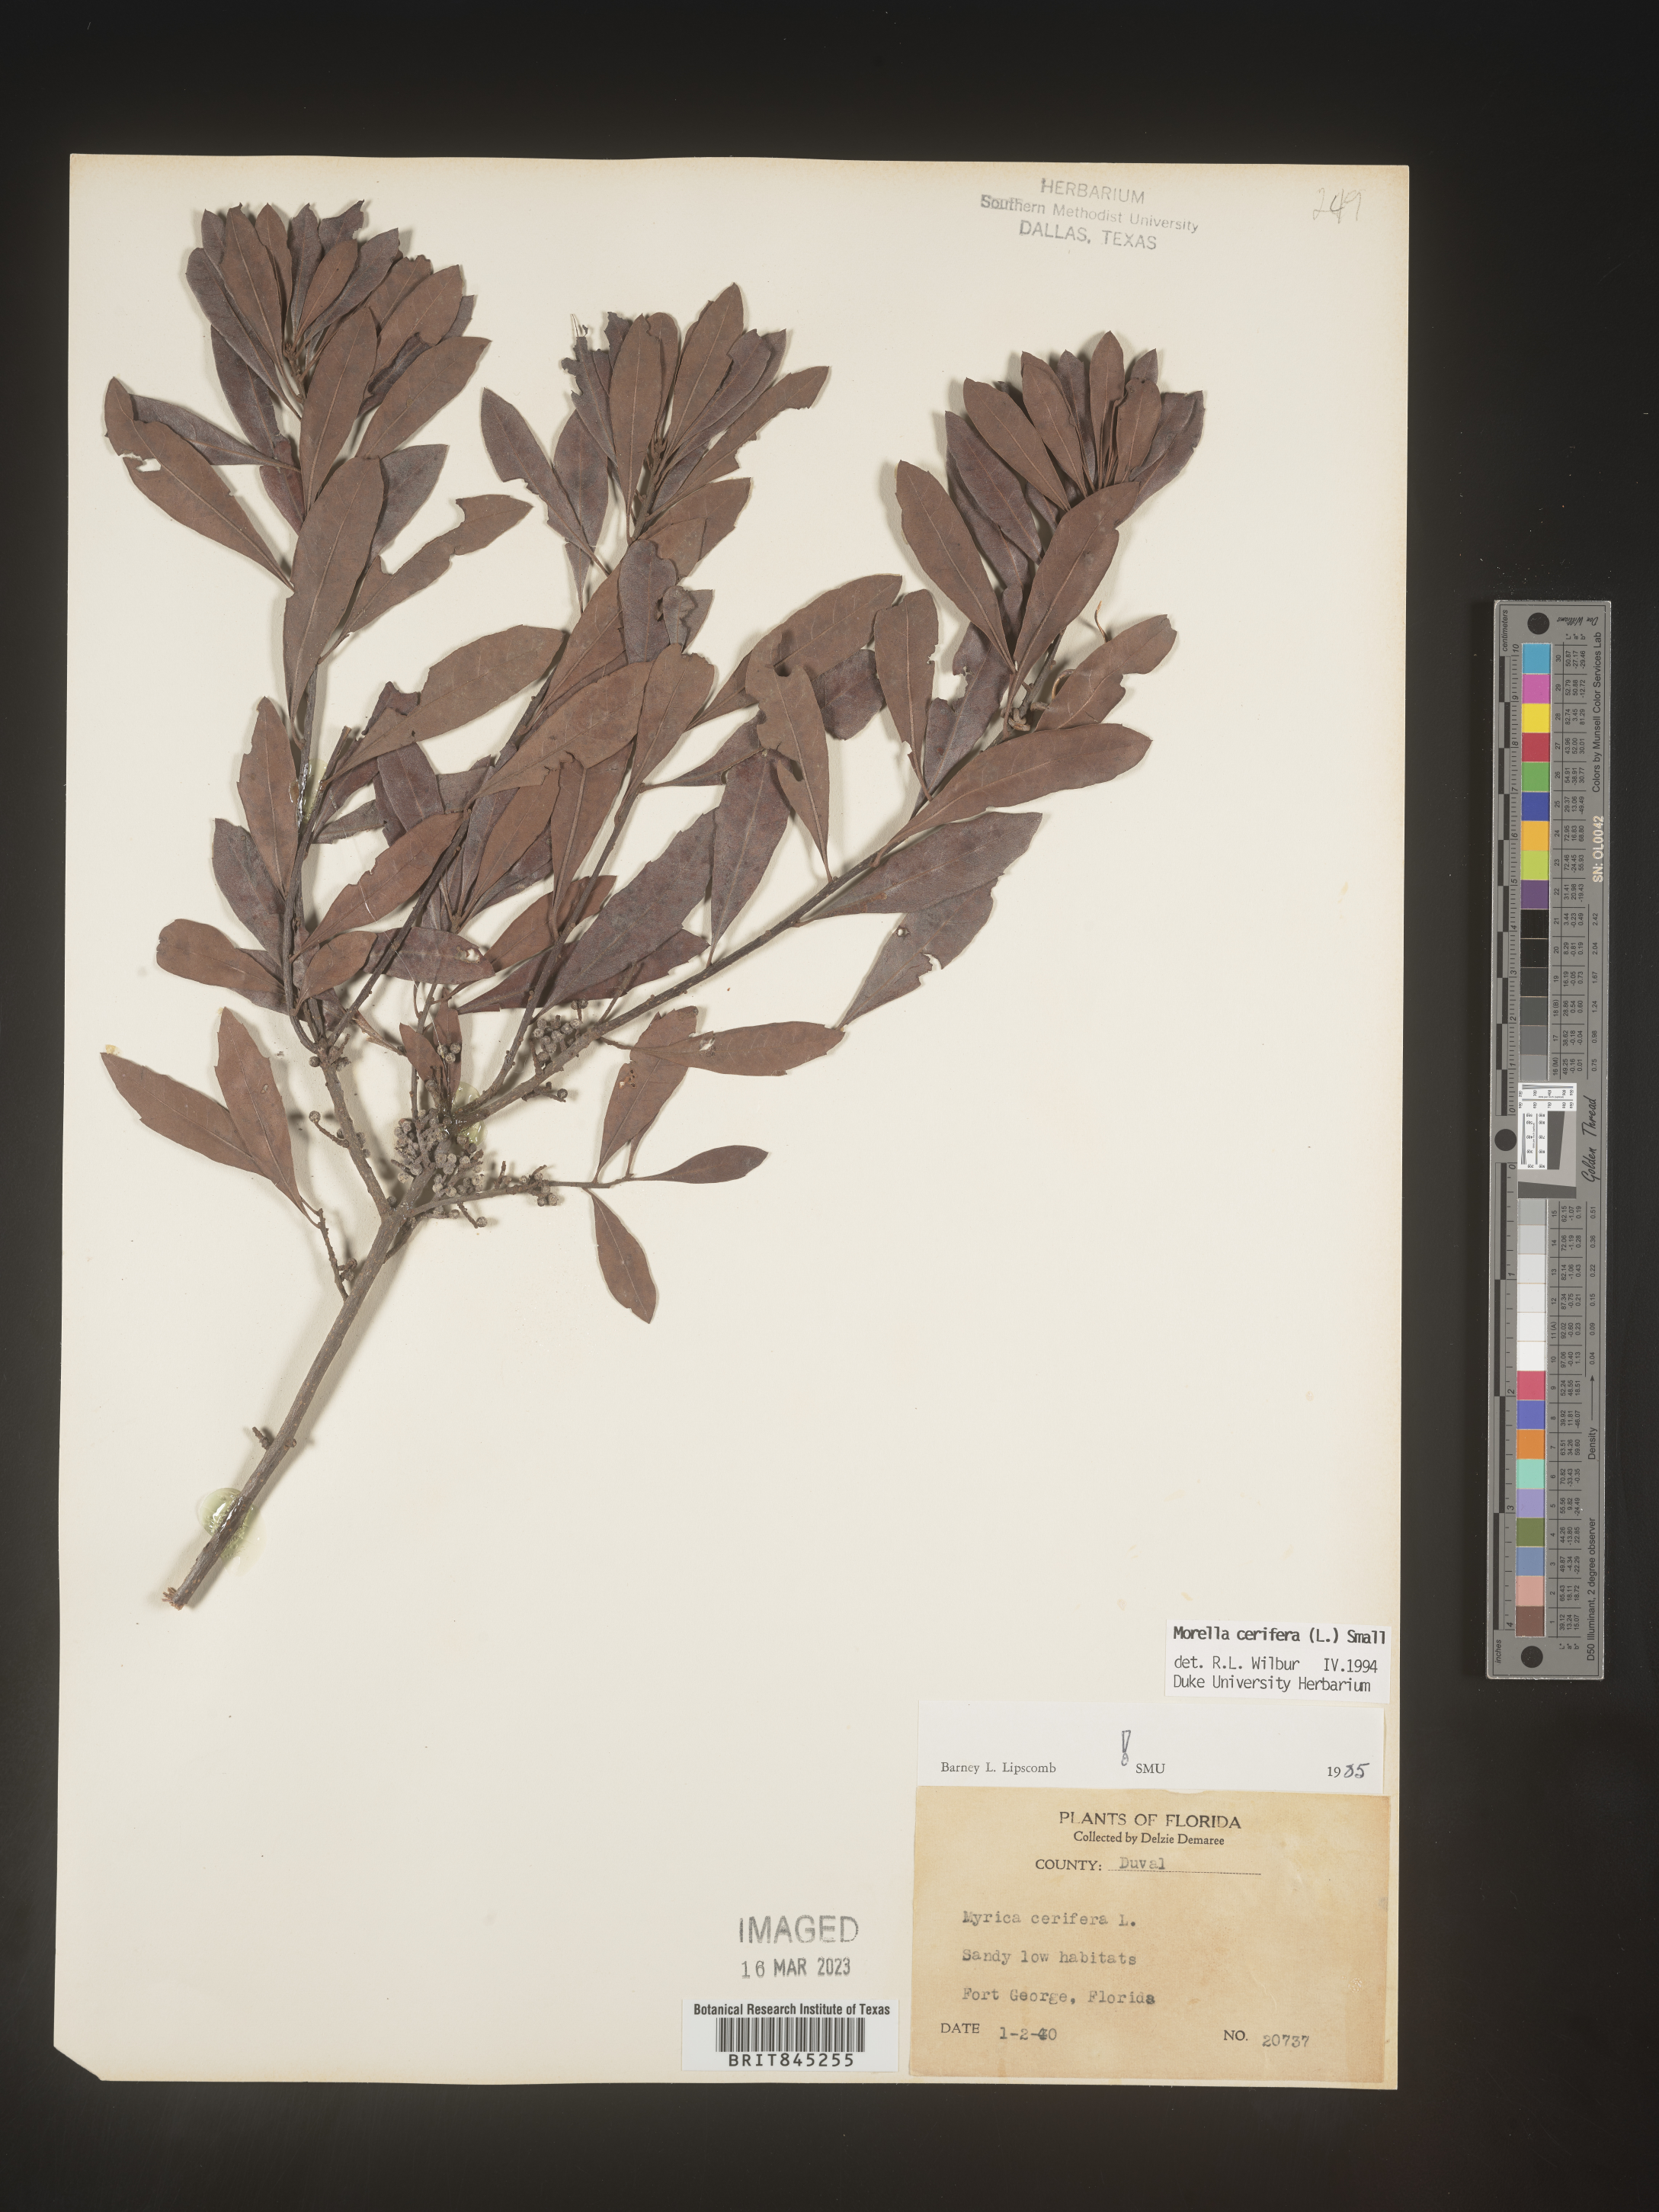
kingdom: Plantae
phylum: Tracheophyta
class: Magnoliopsida
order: Fagales
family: Myricaceae
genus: Morella
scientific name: Morella cerifera
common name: Wax myrtle
